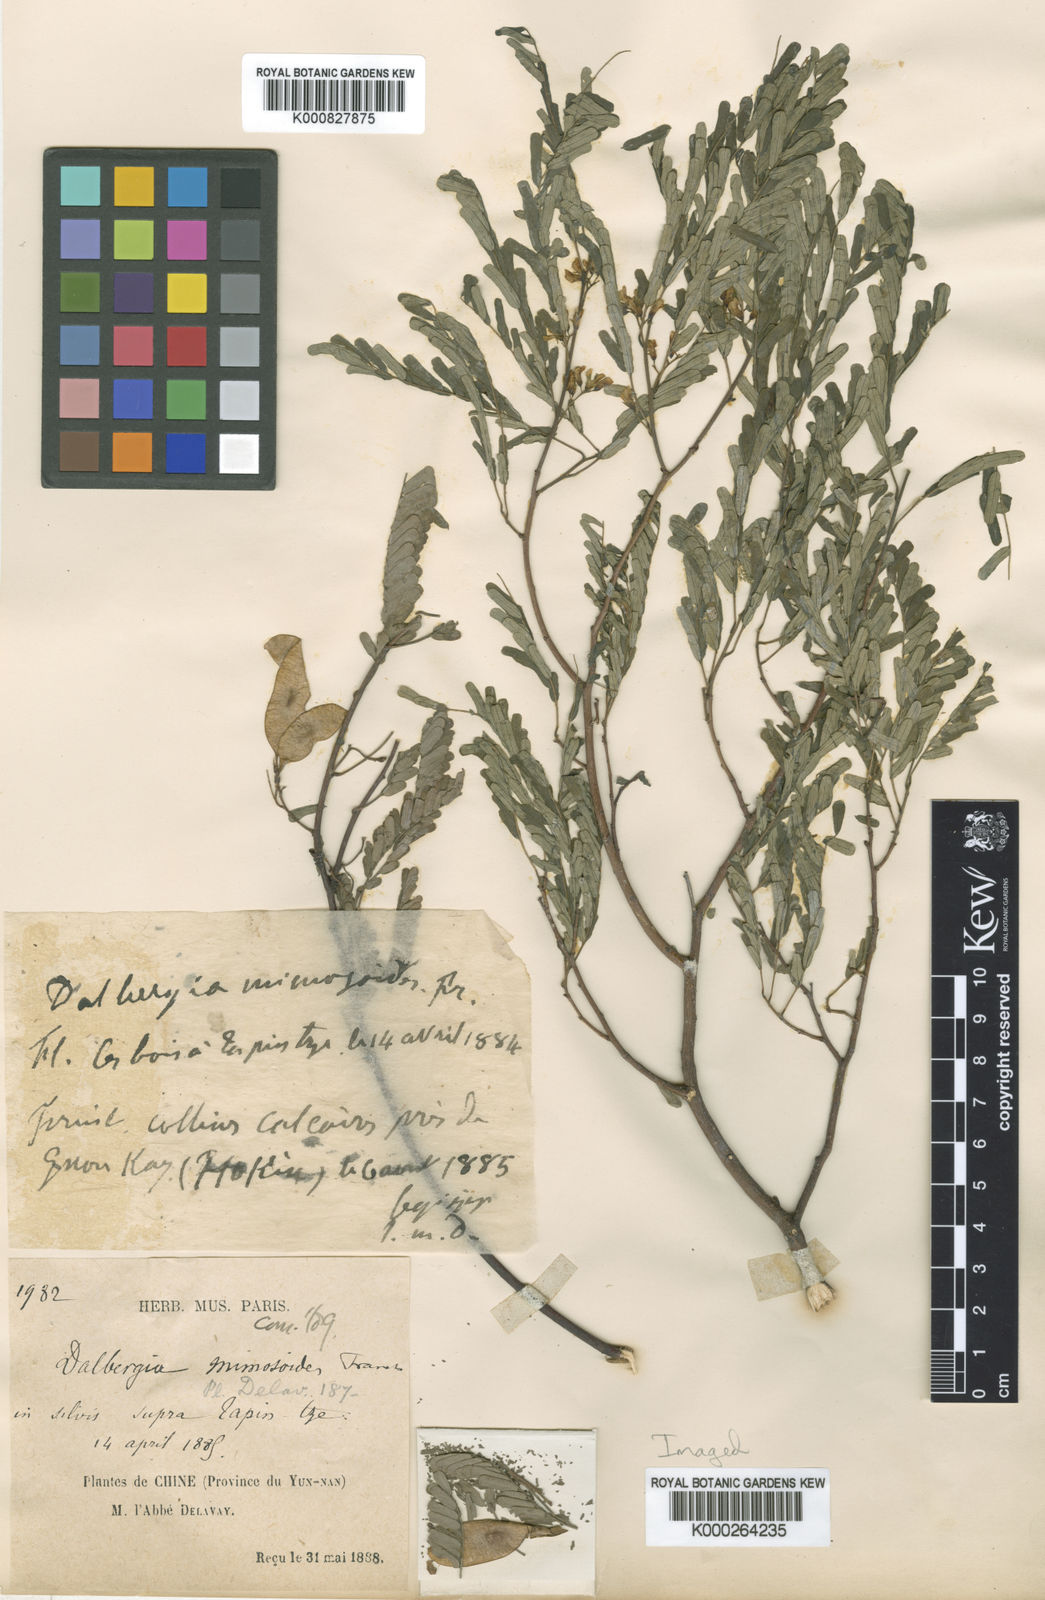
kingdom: Plantae
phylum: Tracheophyta
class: Magnoliopsida
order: Fabales
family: Fabaceae
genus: Dalbergia
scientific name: Dalbergia millettii
